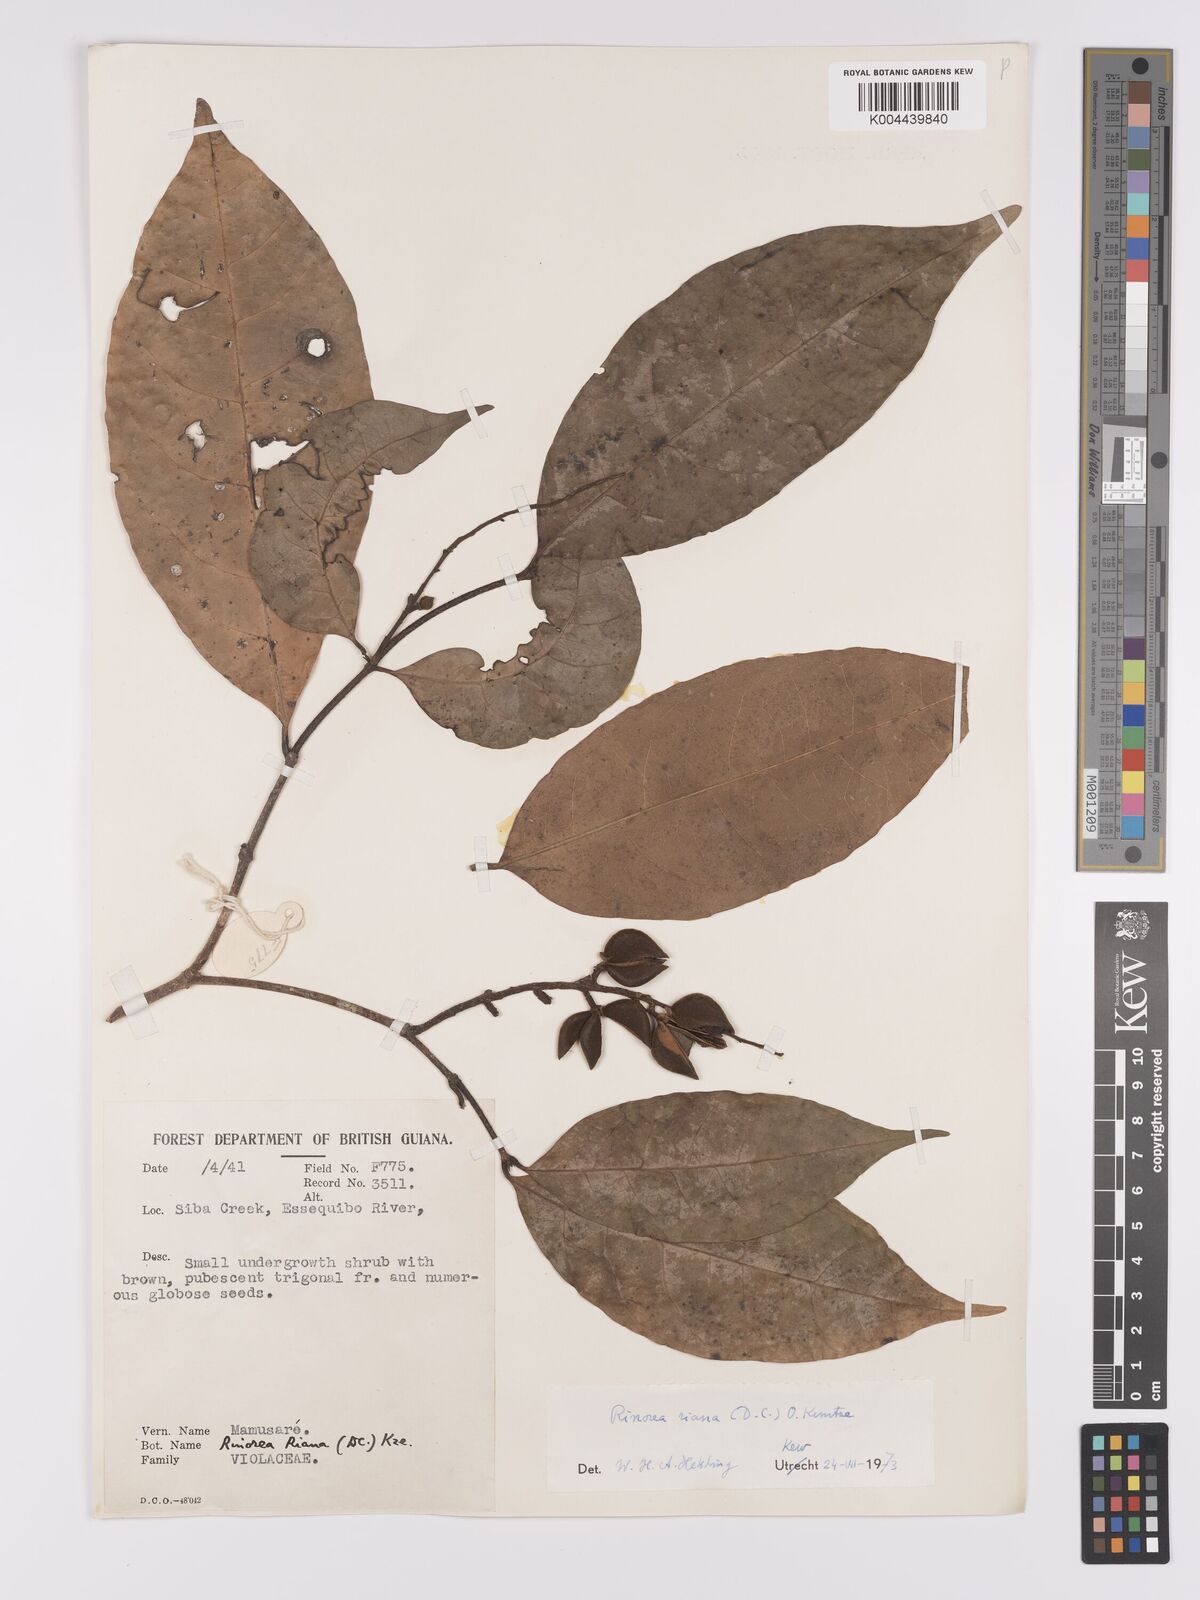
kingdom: Plantae
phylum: Tracheophyta
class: Magnoliopsida
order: Malpighiales
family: Violaceae
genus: Rinorea
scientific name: Rinorea riana
